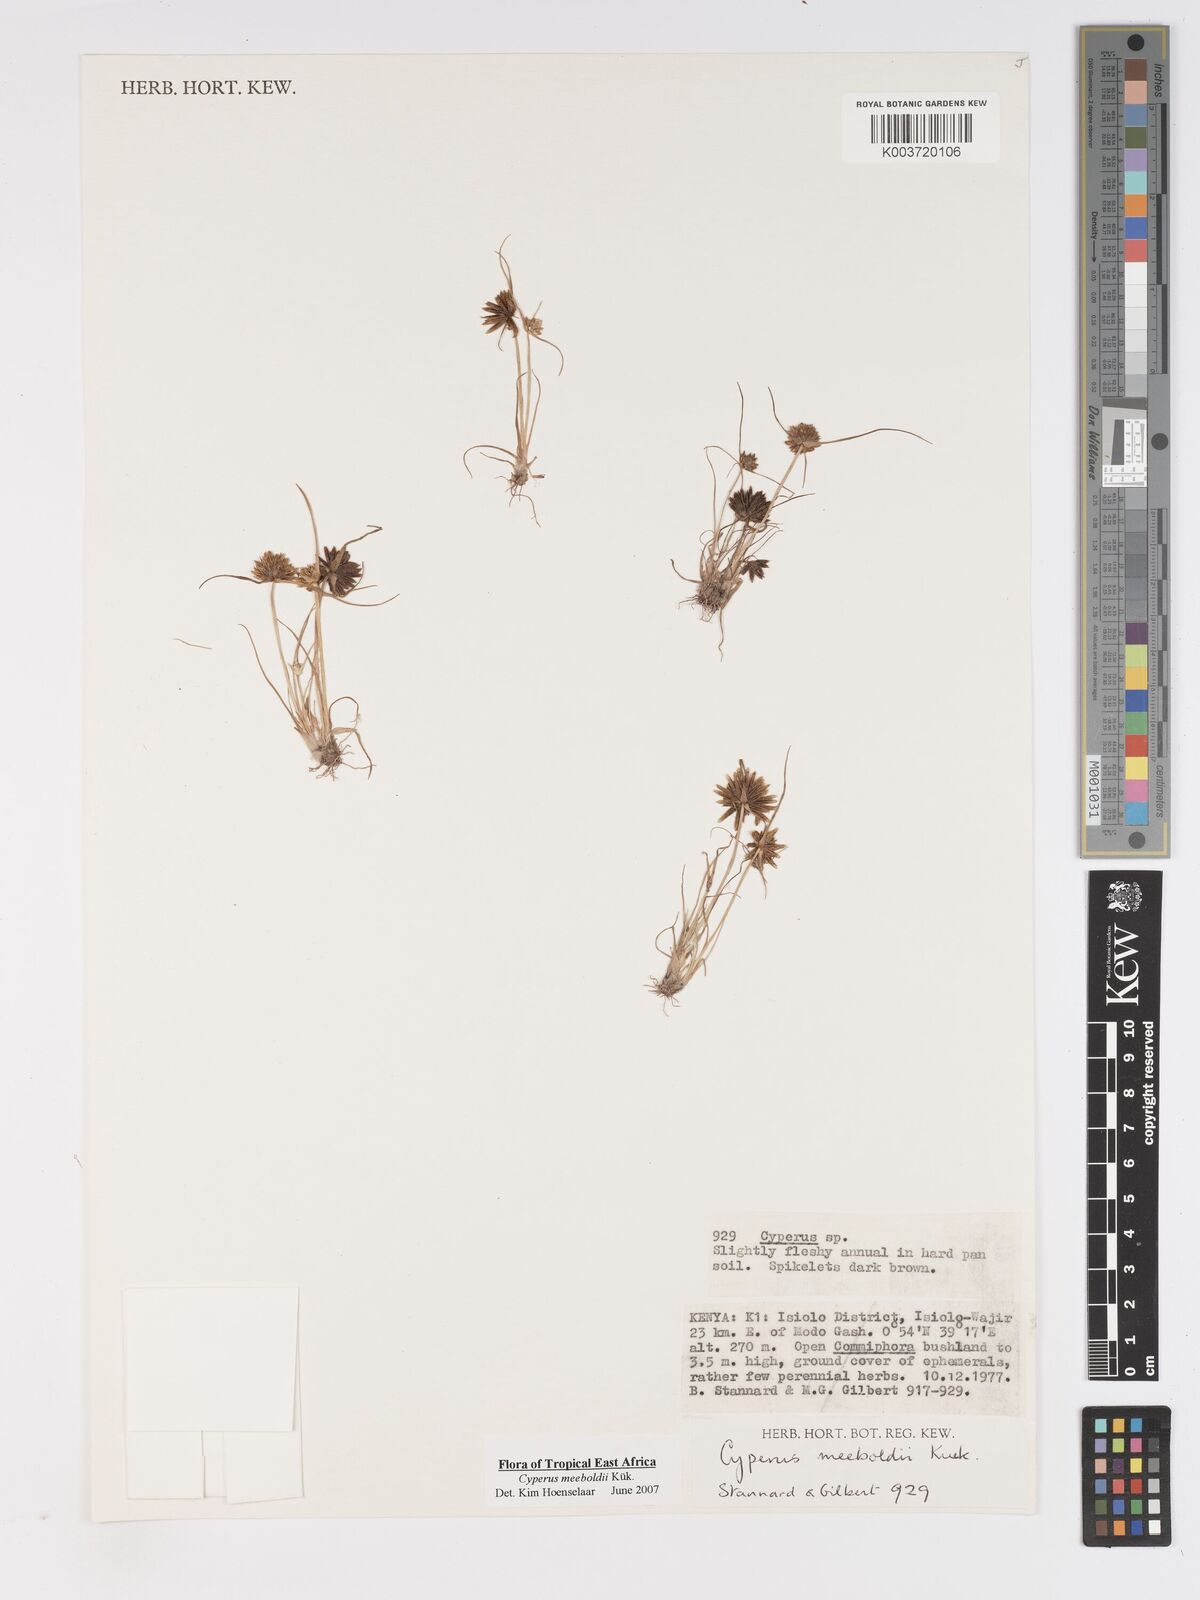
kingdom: Plantae
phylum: Tracheophyta
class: Liliopsida
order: Poales
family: Cyperaceae
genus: Cyperus
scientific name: Cyperus meeboldii
